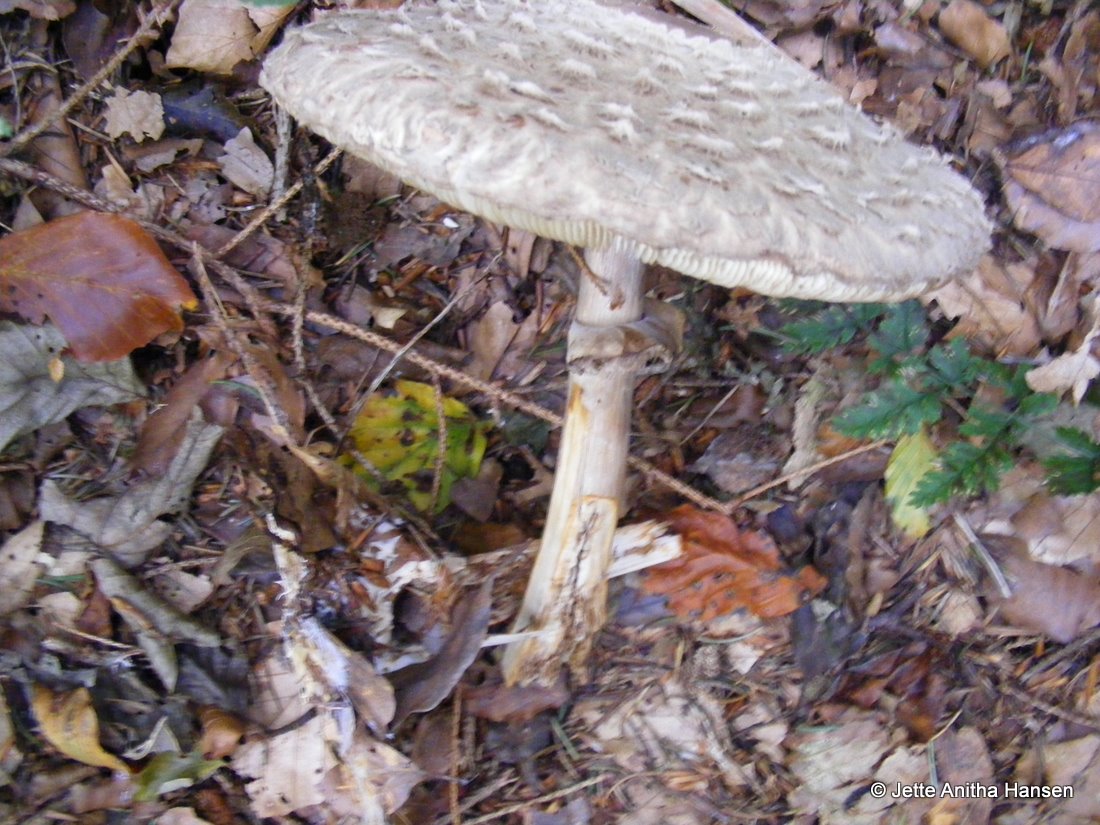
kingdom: Fungi
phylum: Basidiomycota
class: Agaricomycetes
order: Agaricales
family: Agaricaceae
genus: Chlorophyllum
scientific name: Chlorophyllum olivieri
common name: almindelig rabarberhat
